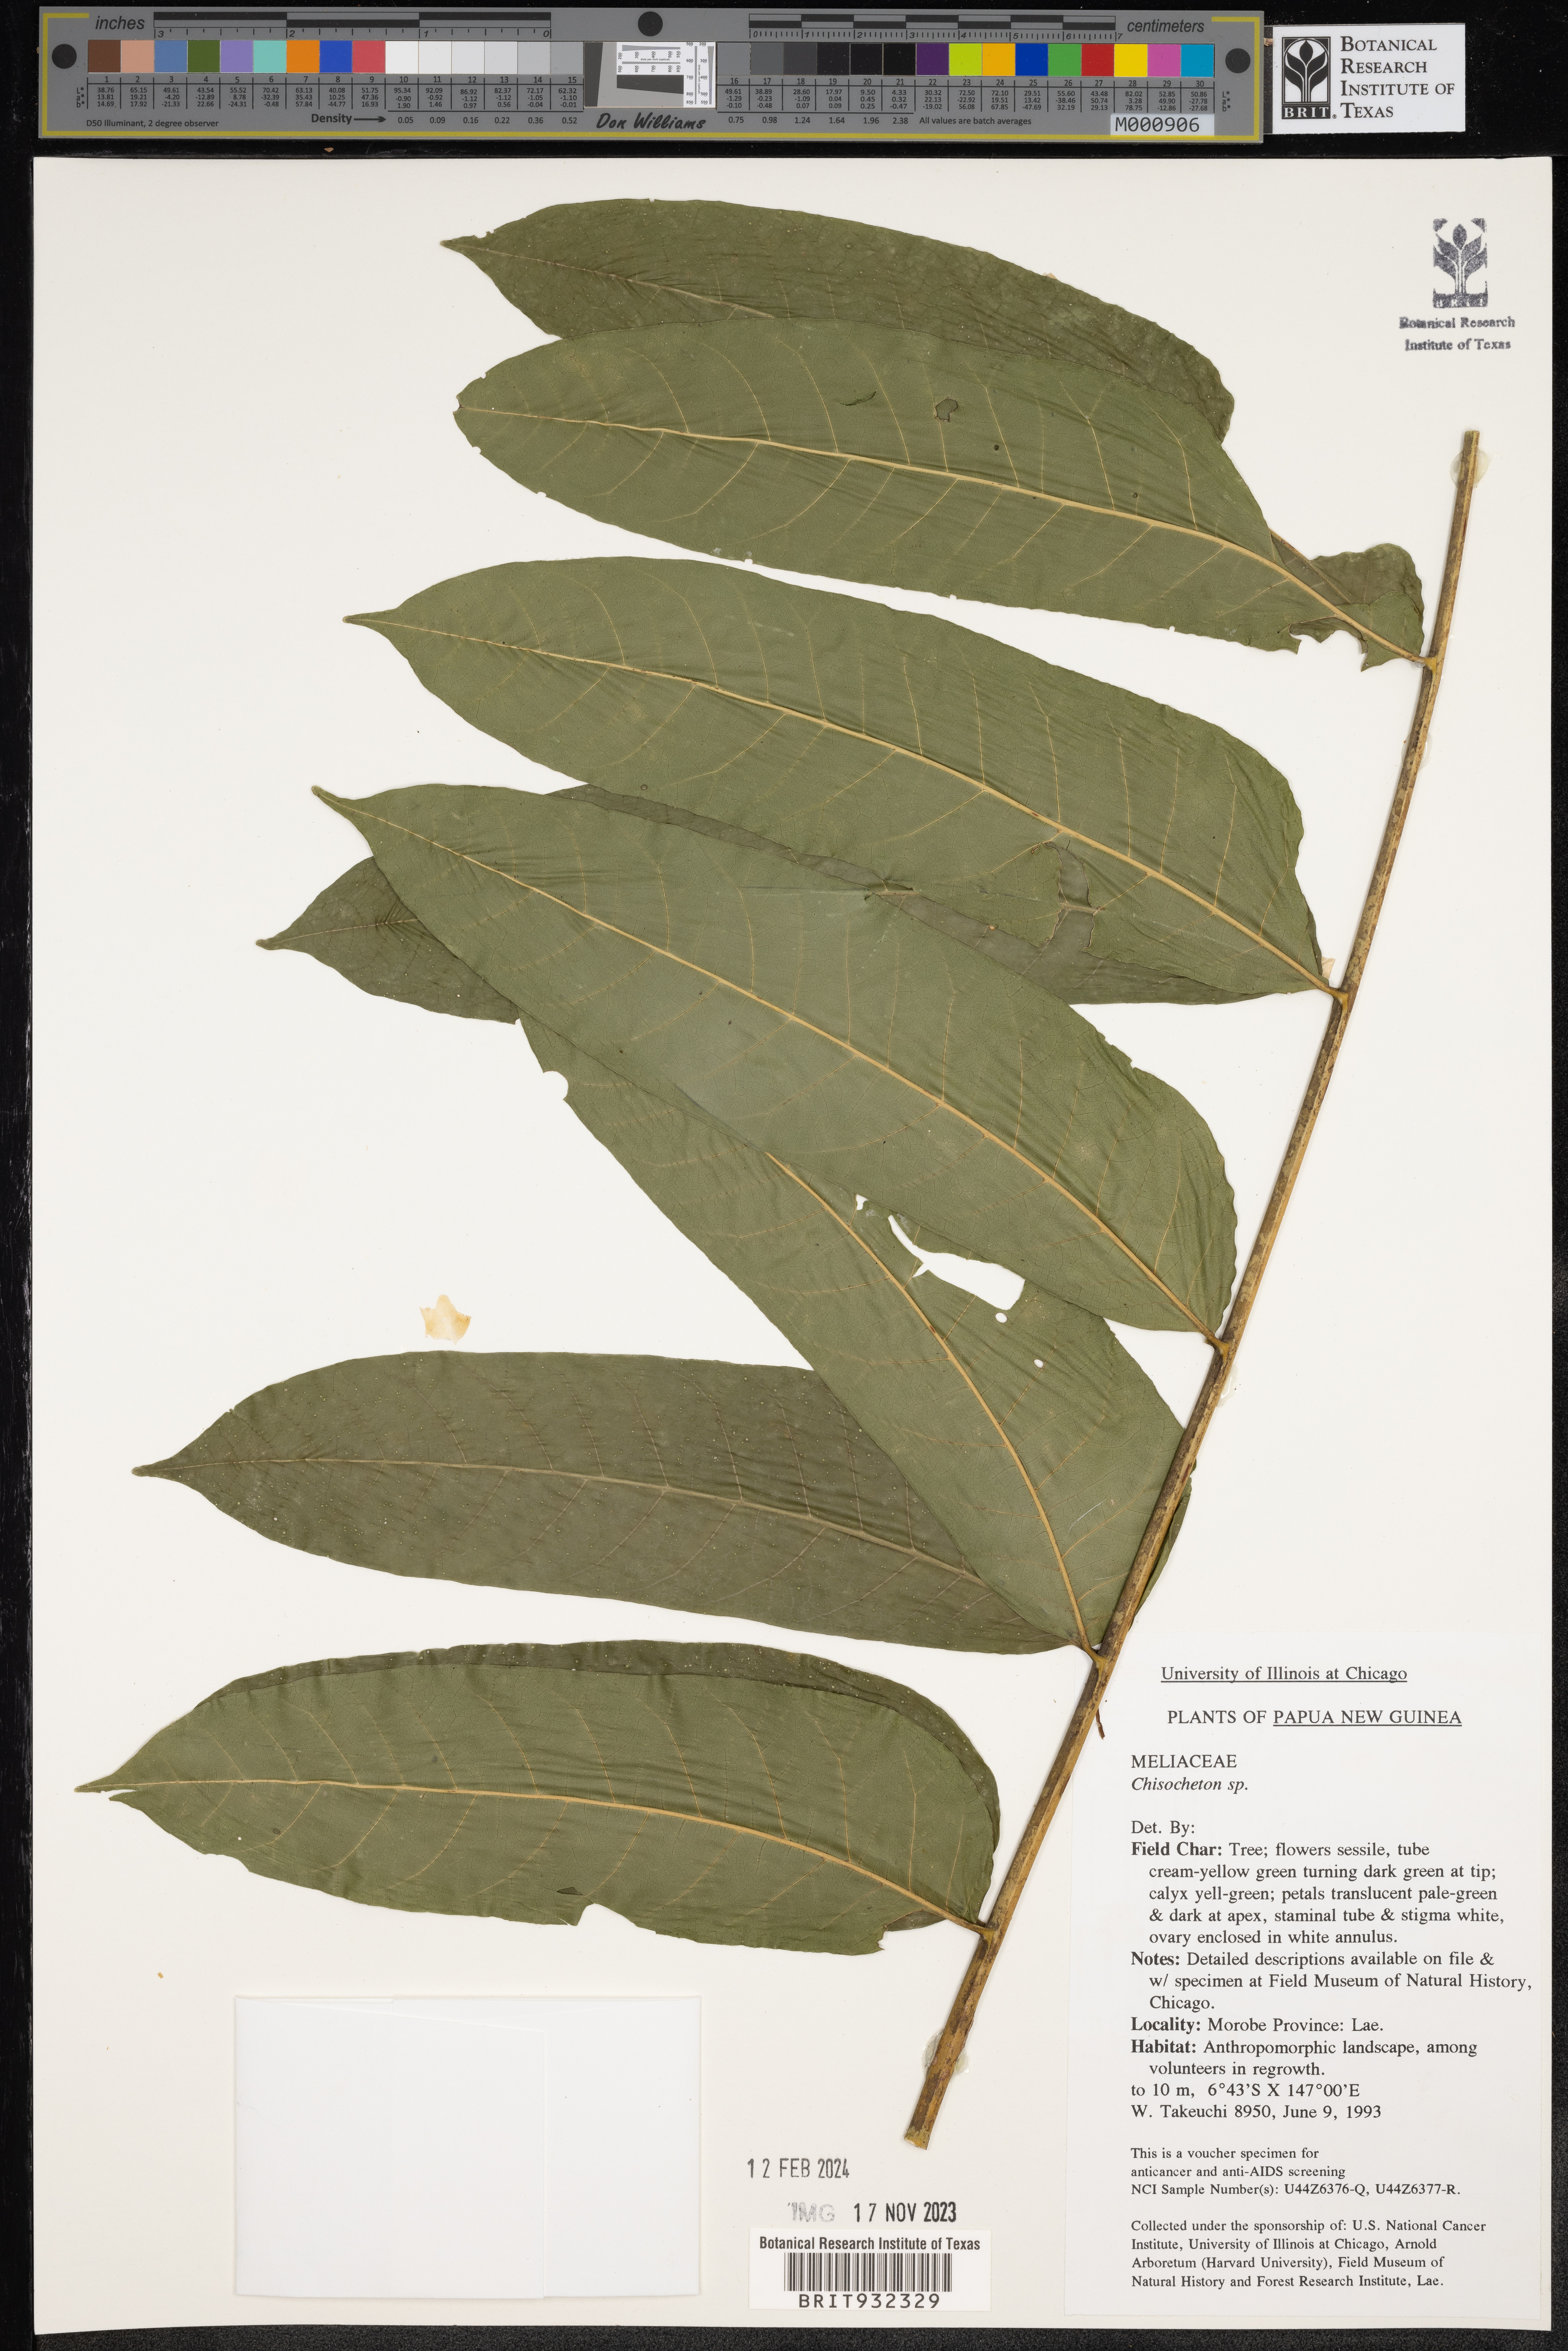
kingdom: Plantae
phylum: Tracheophyta
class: Magnoliopsida
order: Sapindales
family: Meliaceae
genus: Chisocheton
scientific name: Chisocheton
